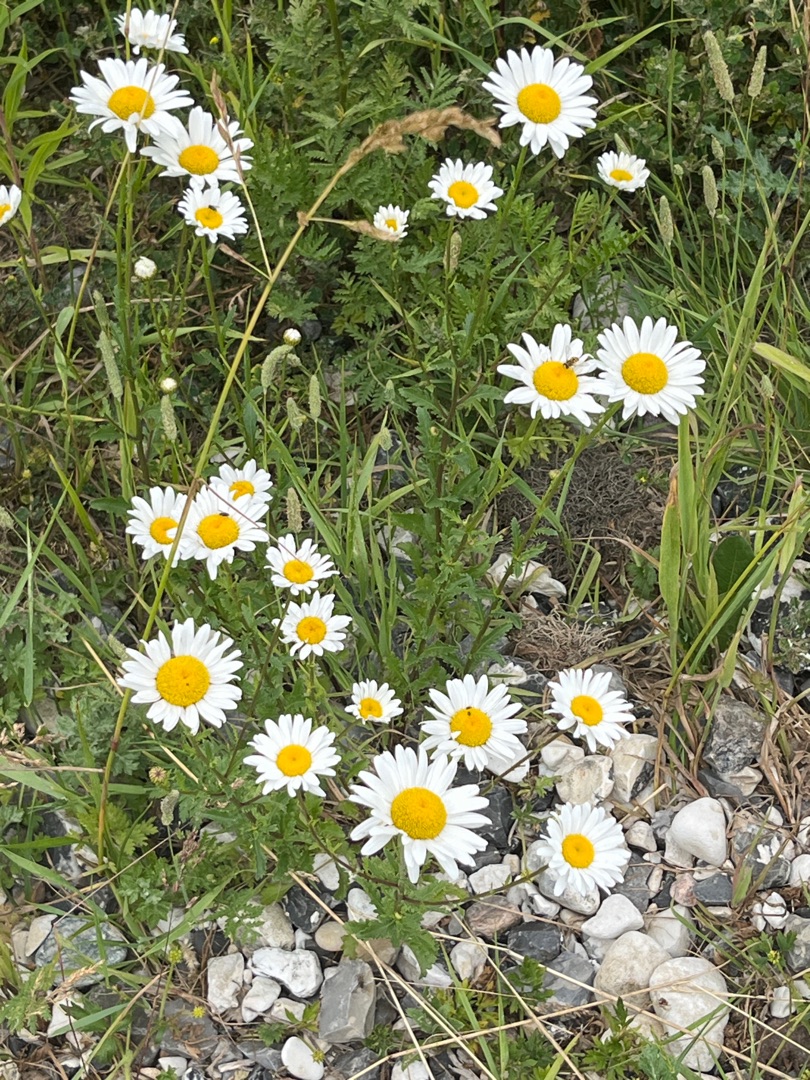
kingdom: Plantae
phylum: Tracheophyta
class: Magnoliopsida
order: Asterales
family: Asteraceae
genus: Leucanthemum
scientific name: Leucanthemum vulgare
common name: Hvid okseøje
